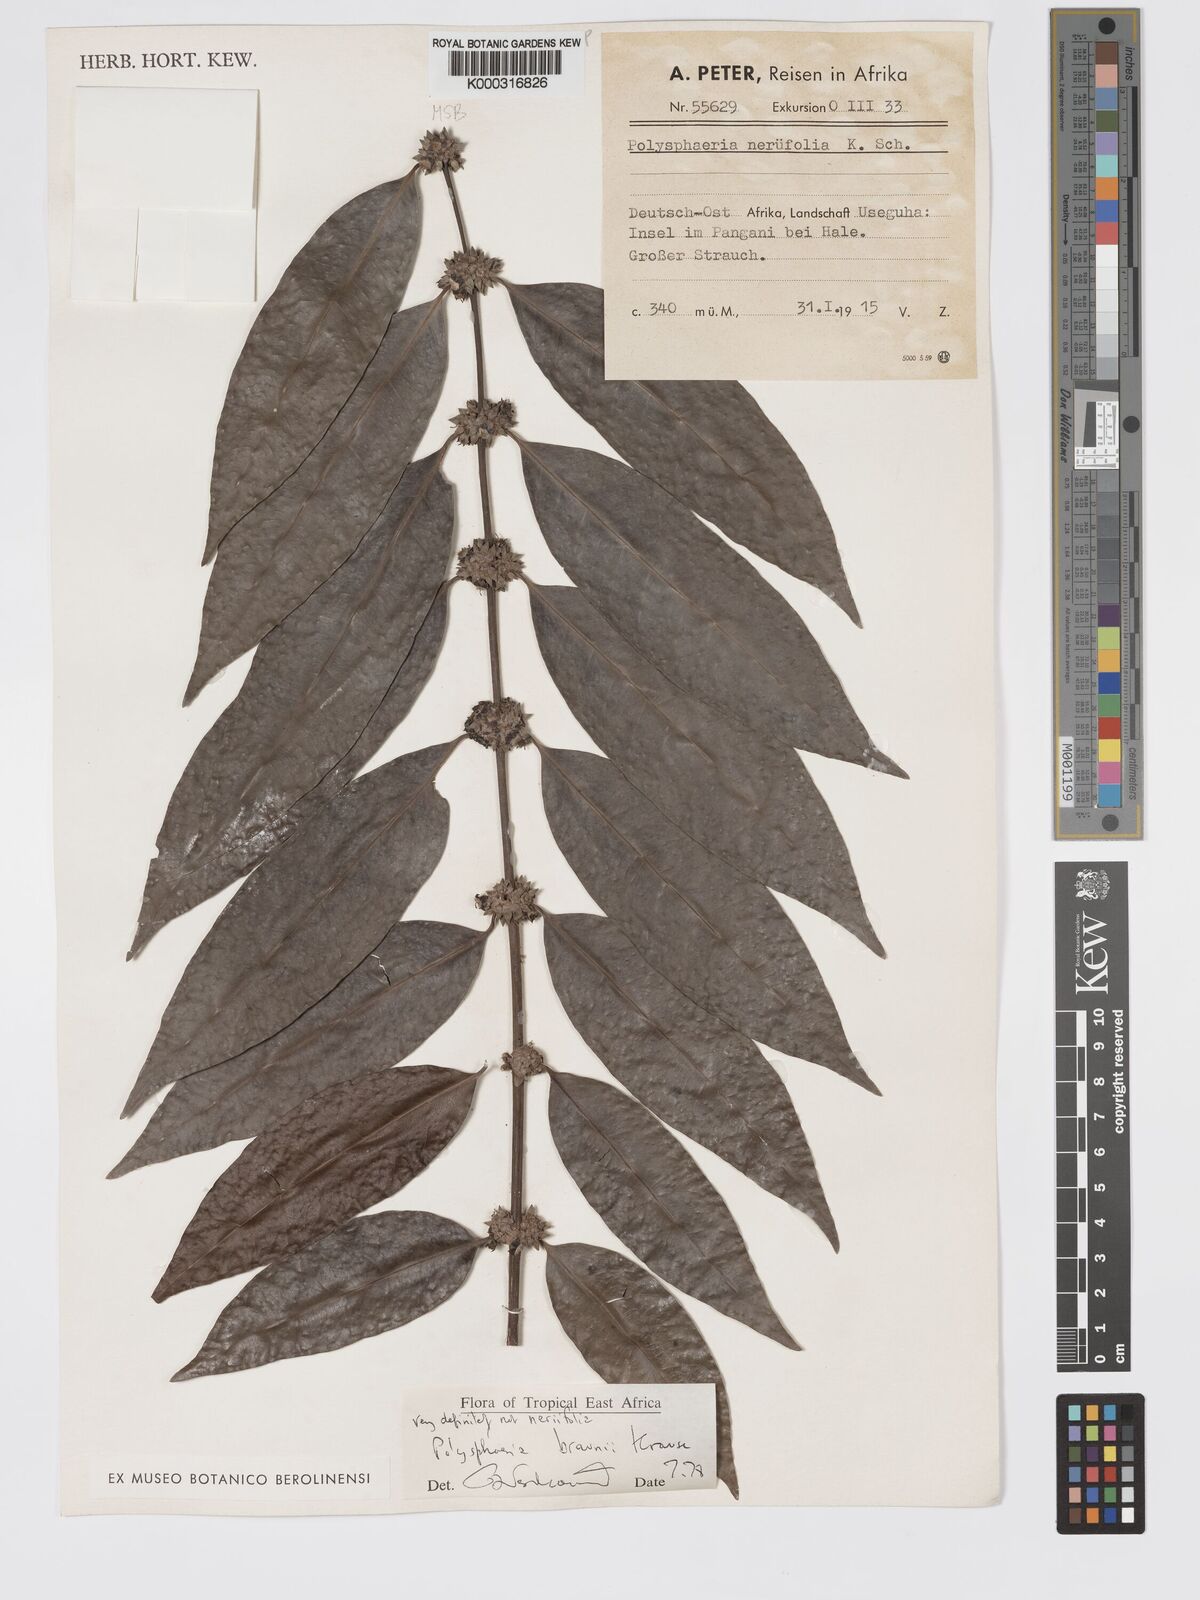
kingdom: Plantae
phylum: Tracheophyta
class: Magnoliopsida
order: Gentianales
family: Rubiaceae
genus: Polysphaeria
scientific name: Polysphaeria braunii
